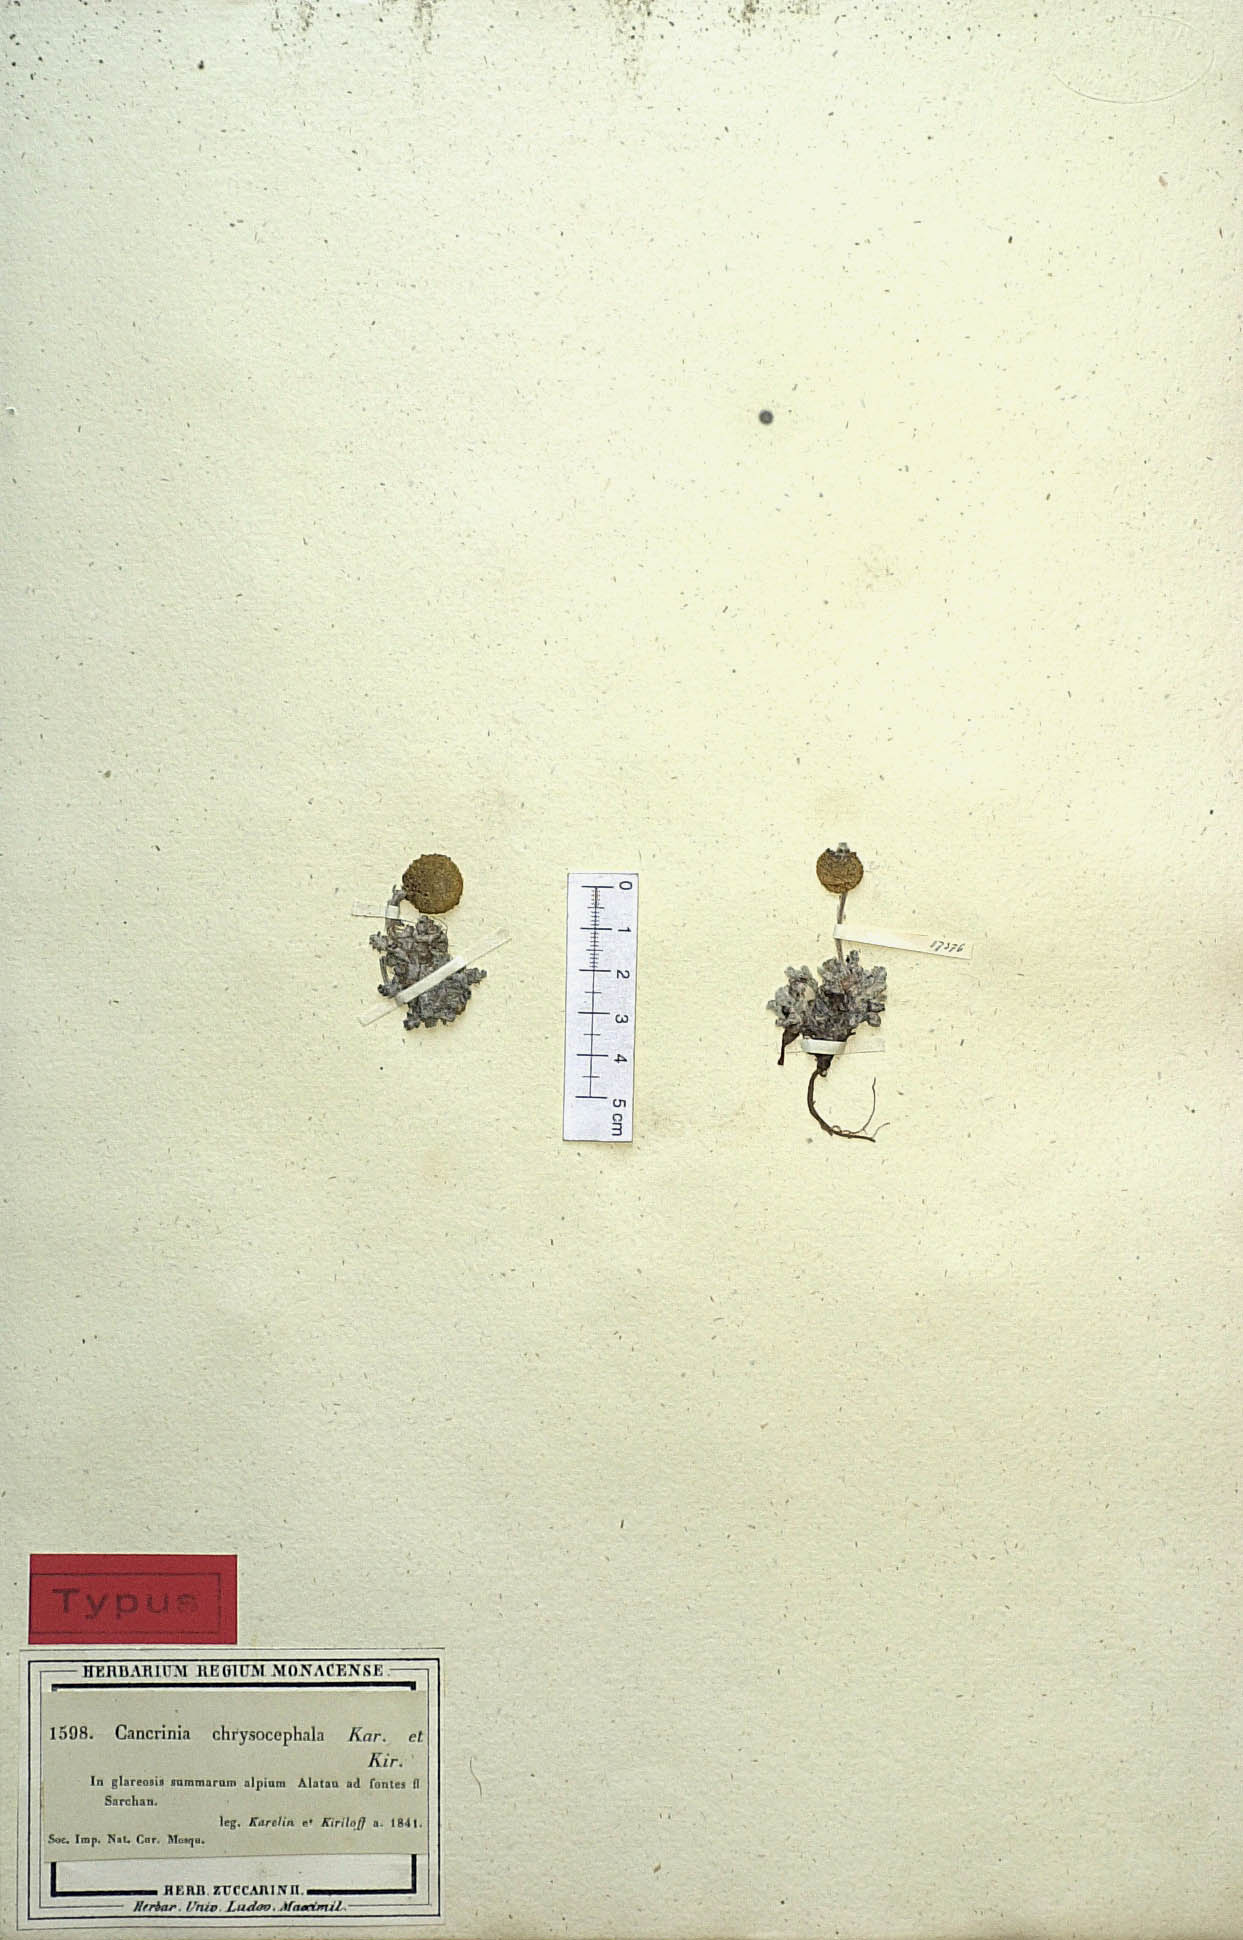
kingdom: Plantae
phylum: Tracheophyta
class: Magnoliopsida
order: Asterales
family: Asteraceae
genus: Cancrinia
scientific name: Cancrinia chrysocephala
